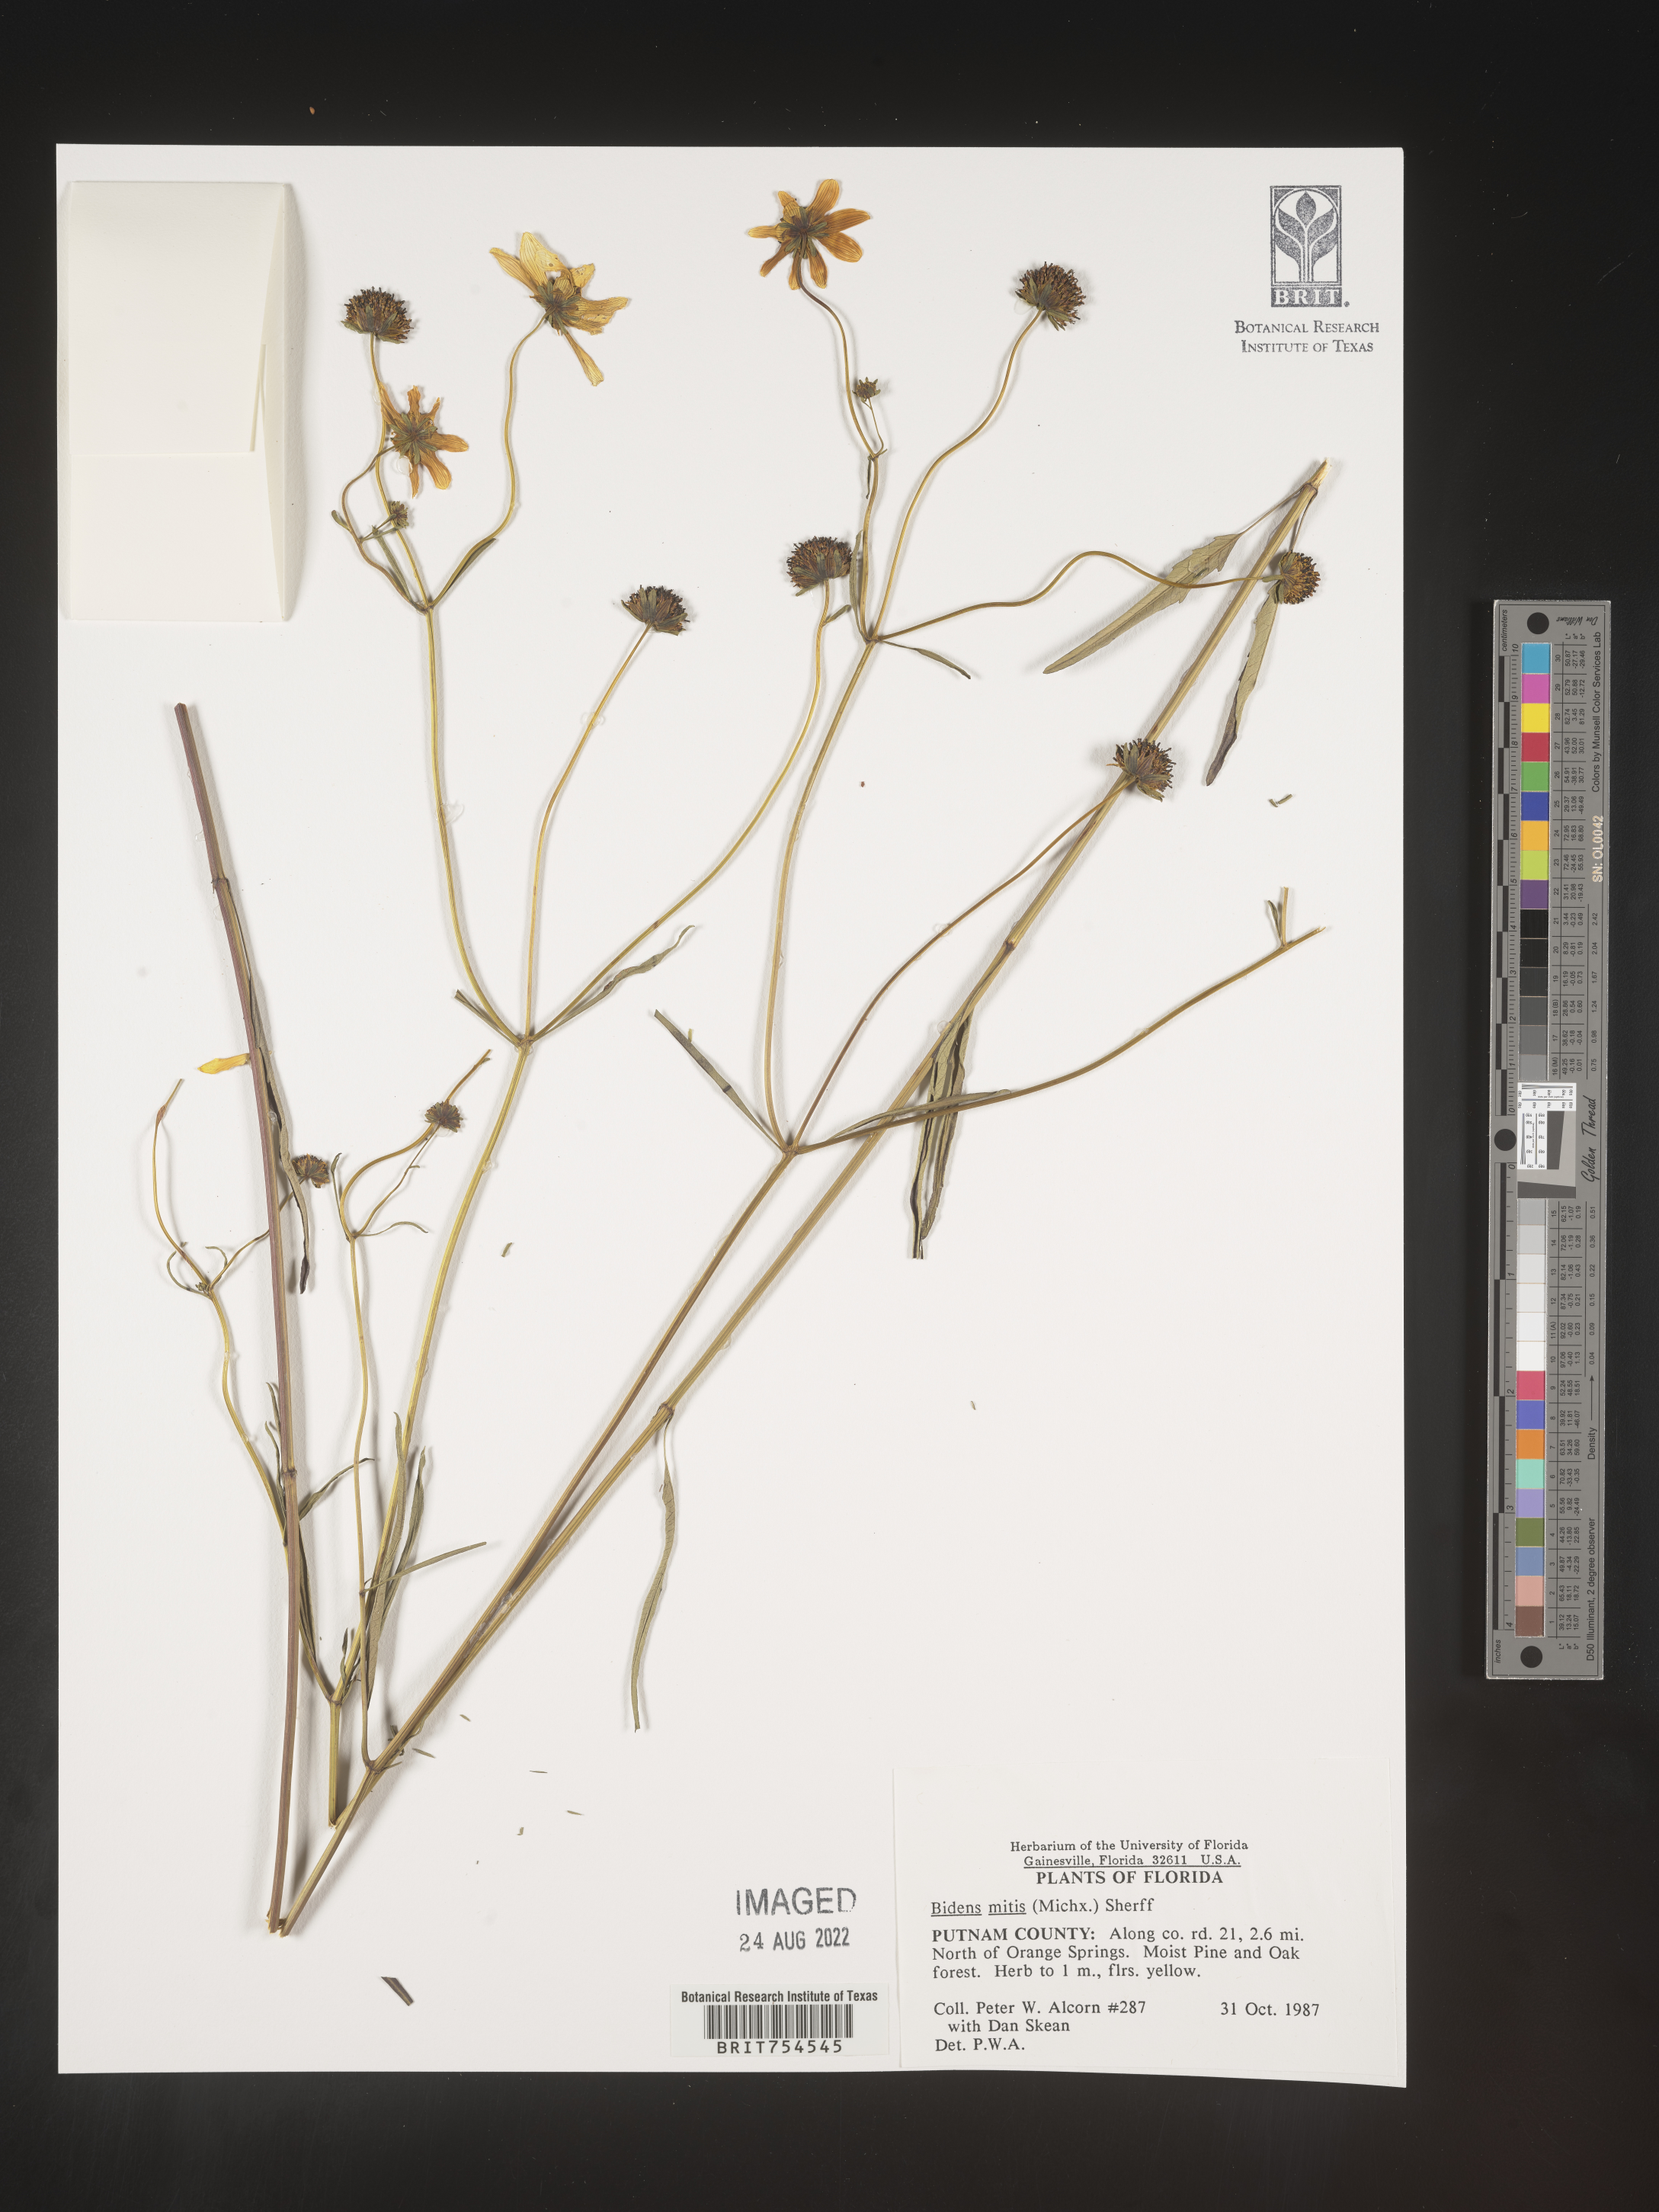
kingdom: Plantae
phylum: Tracheophyta
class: Magnoliopsida
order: Asterales
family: Asteraceae
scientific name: Asteraceae
